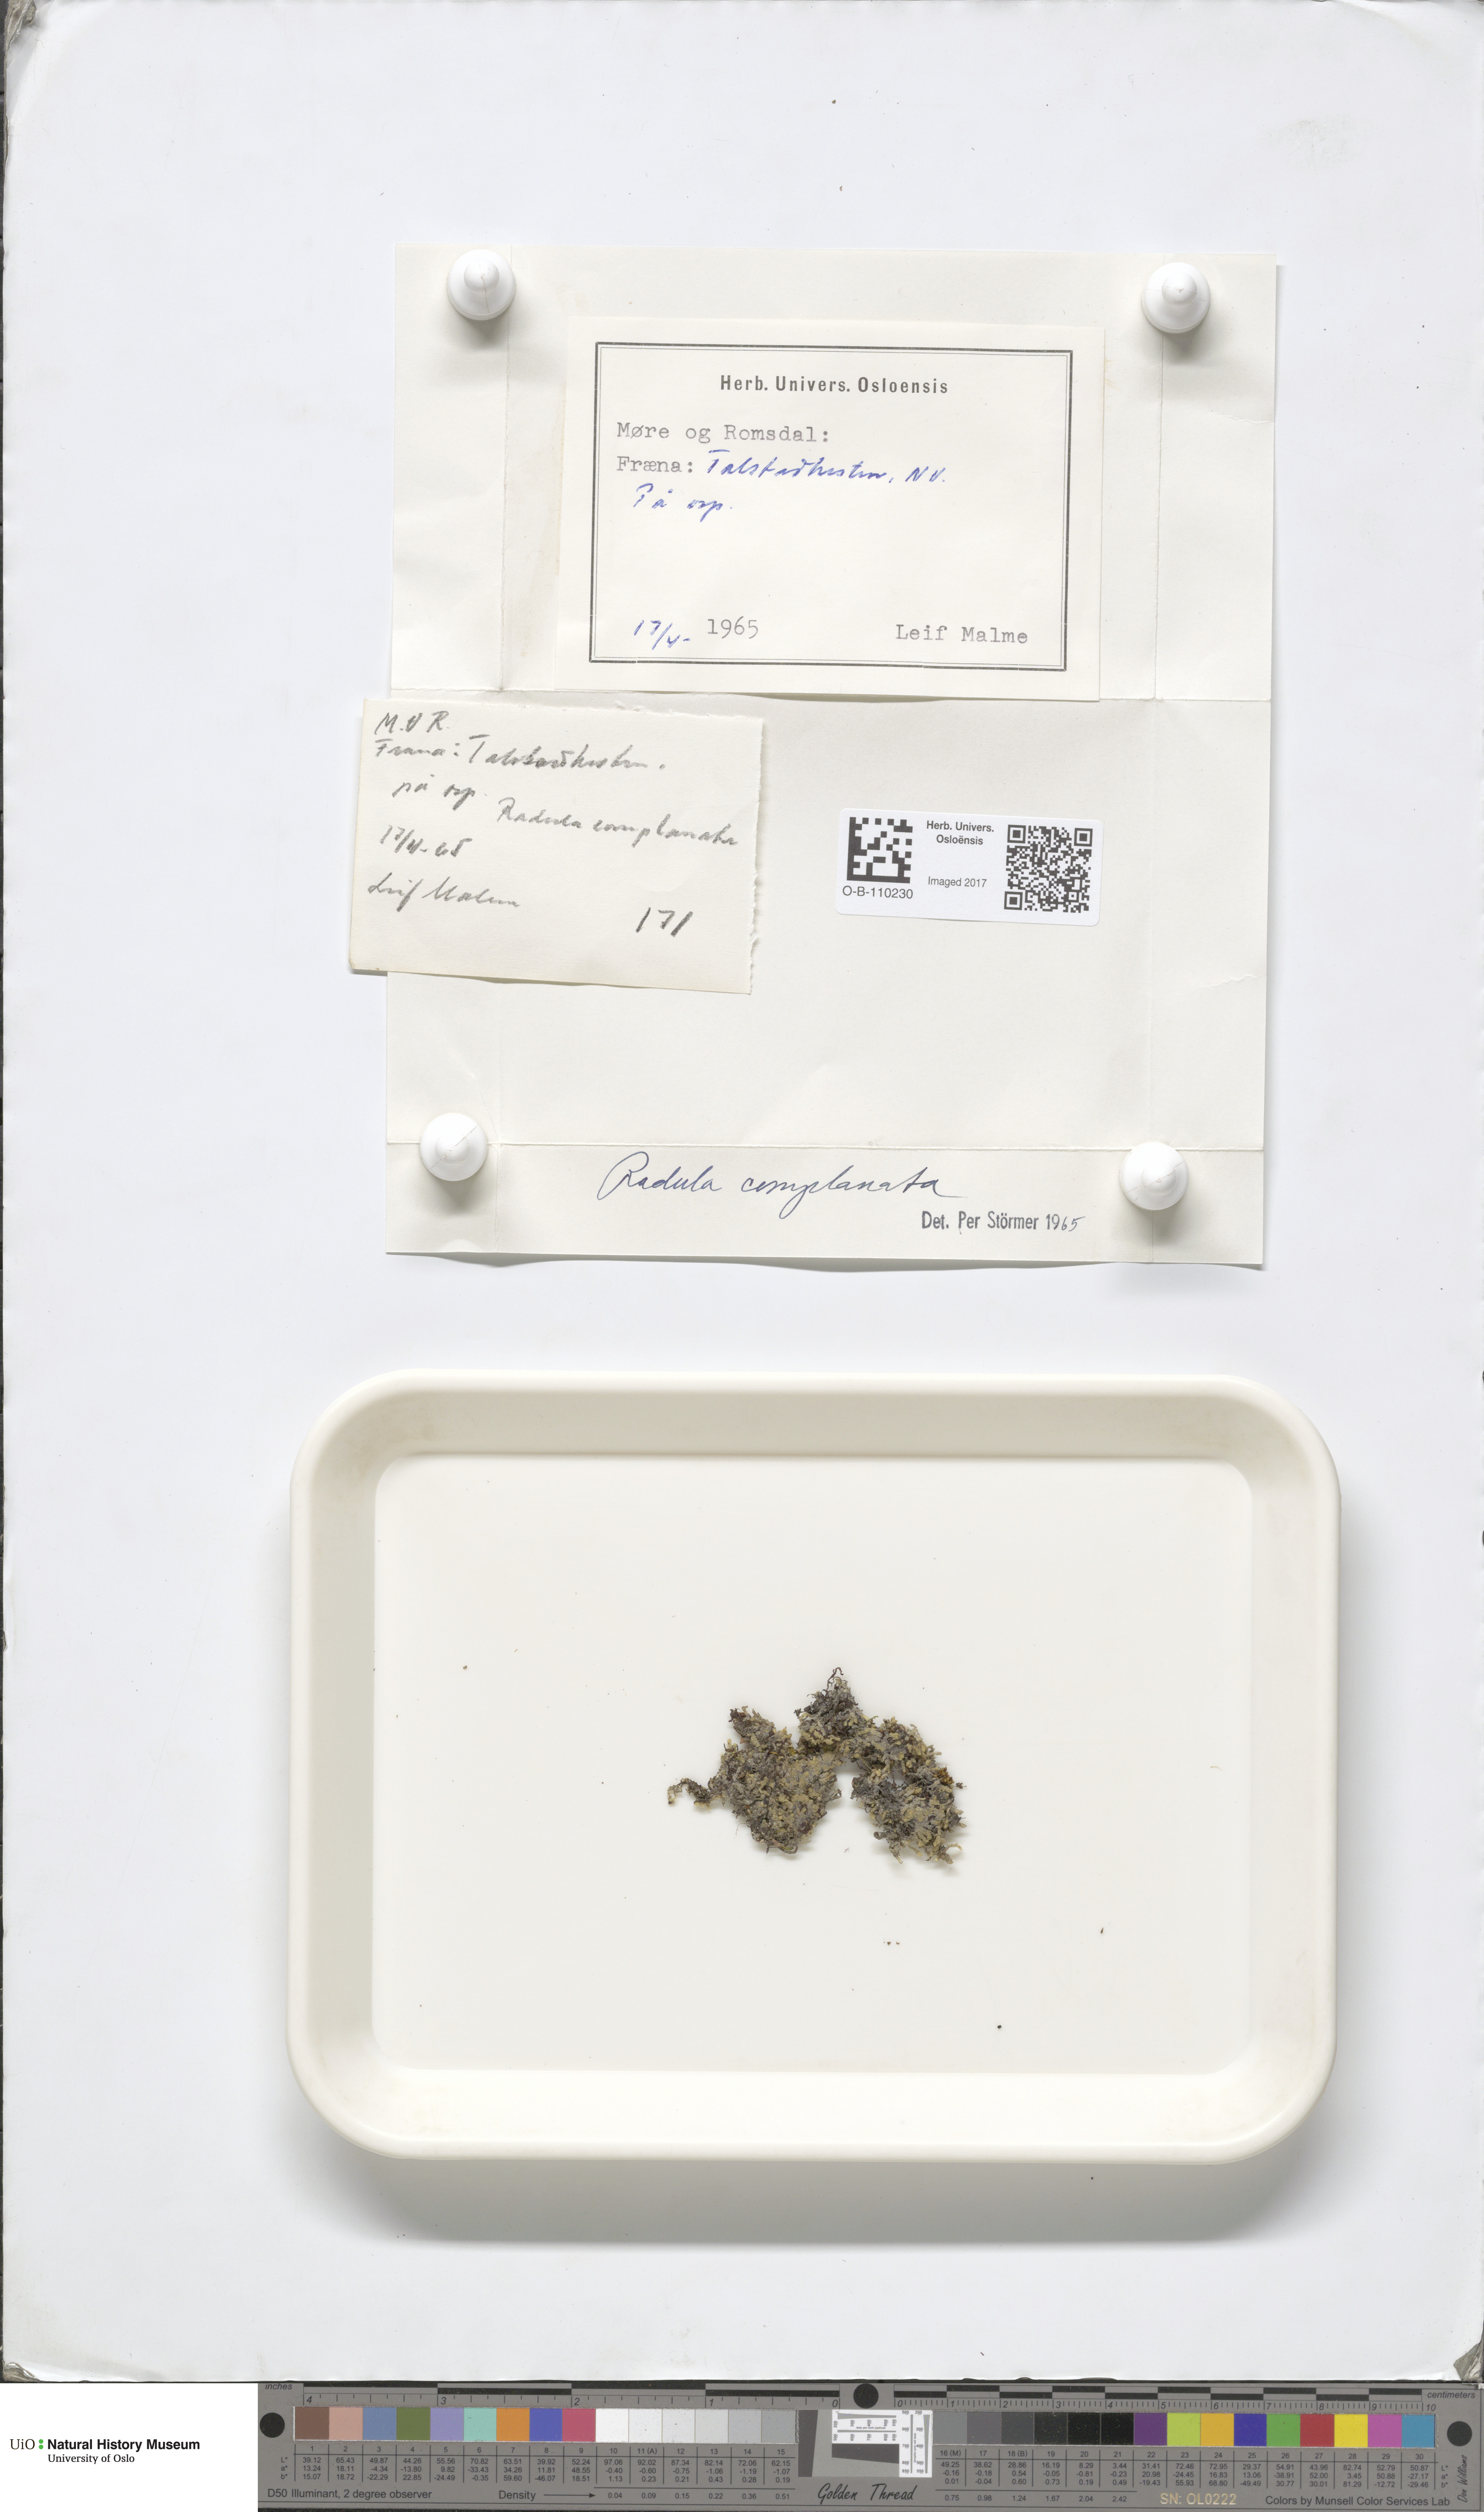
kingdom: Plantae
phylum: Marchantiophyta
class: Jungermanniopsida
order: Jungermanniales
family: Lophoziaceae
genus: Trilophozia
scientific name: Trilophozia quinquedentata
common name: Large notchwort
